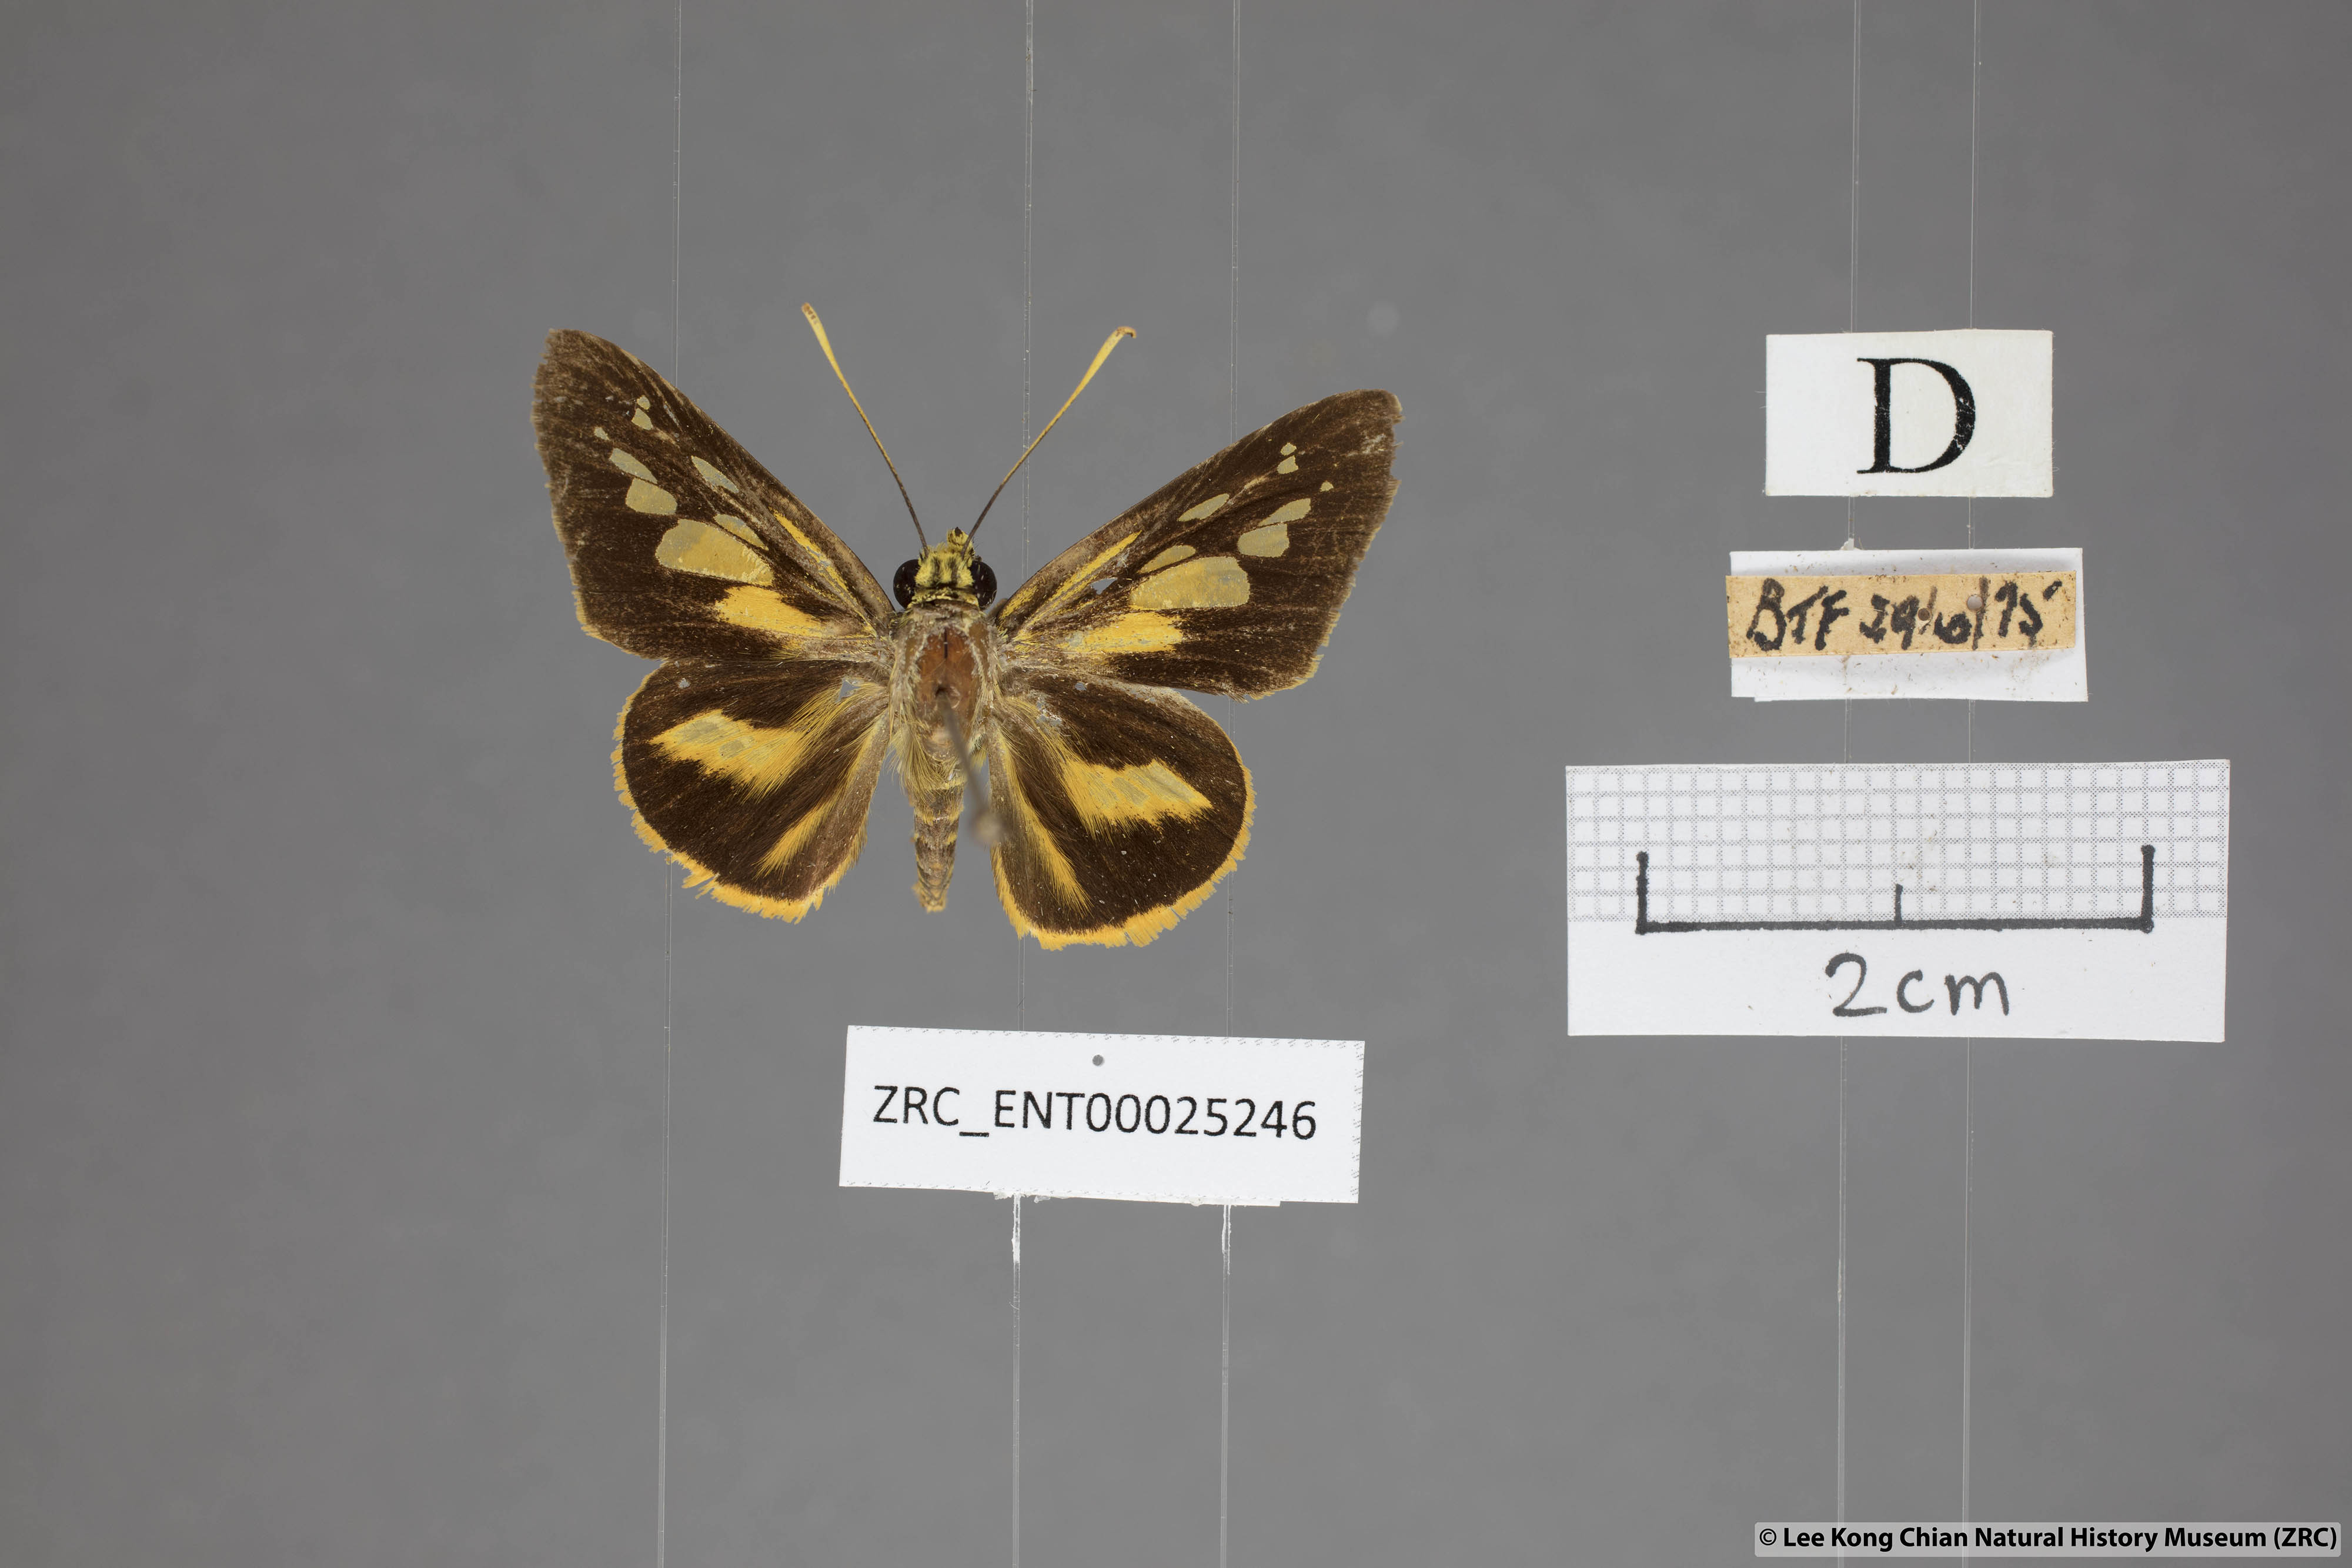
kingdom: Animalia
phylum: Arthropoda
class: Insecta
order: Lepidoptera
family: Hesperiidae
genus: Pyroneura
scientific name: Pyroneura latoia
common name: Yellow vein lancer
